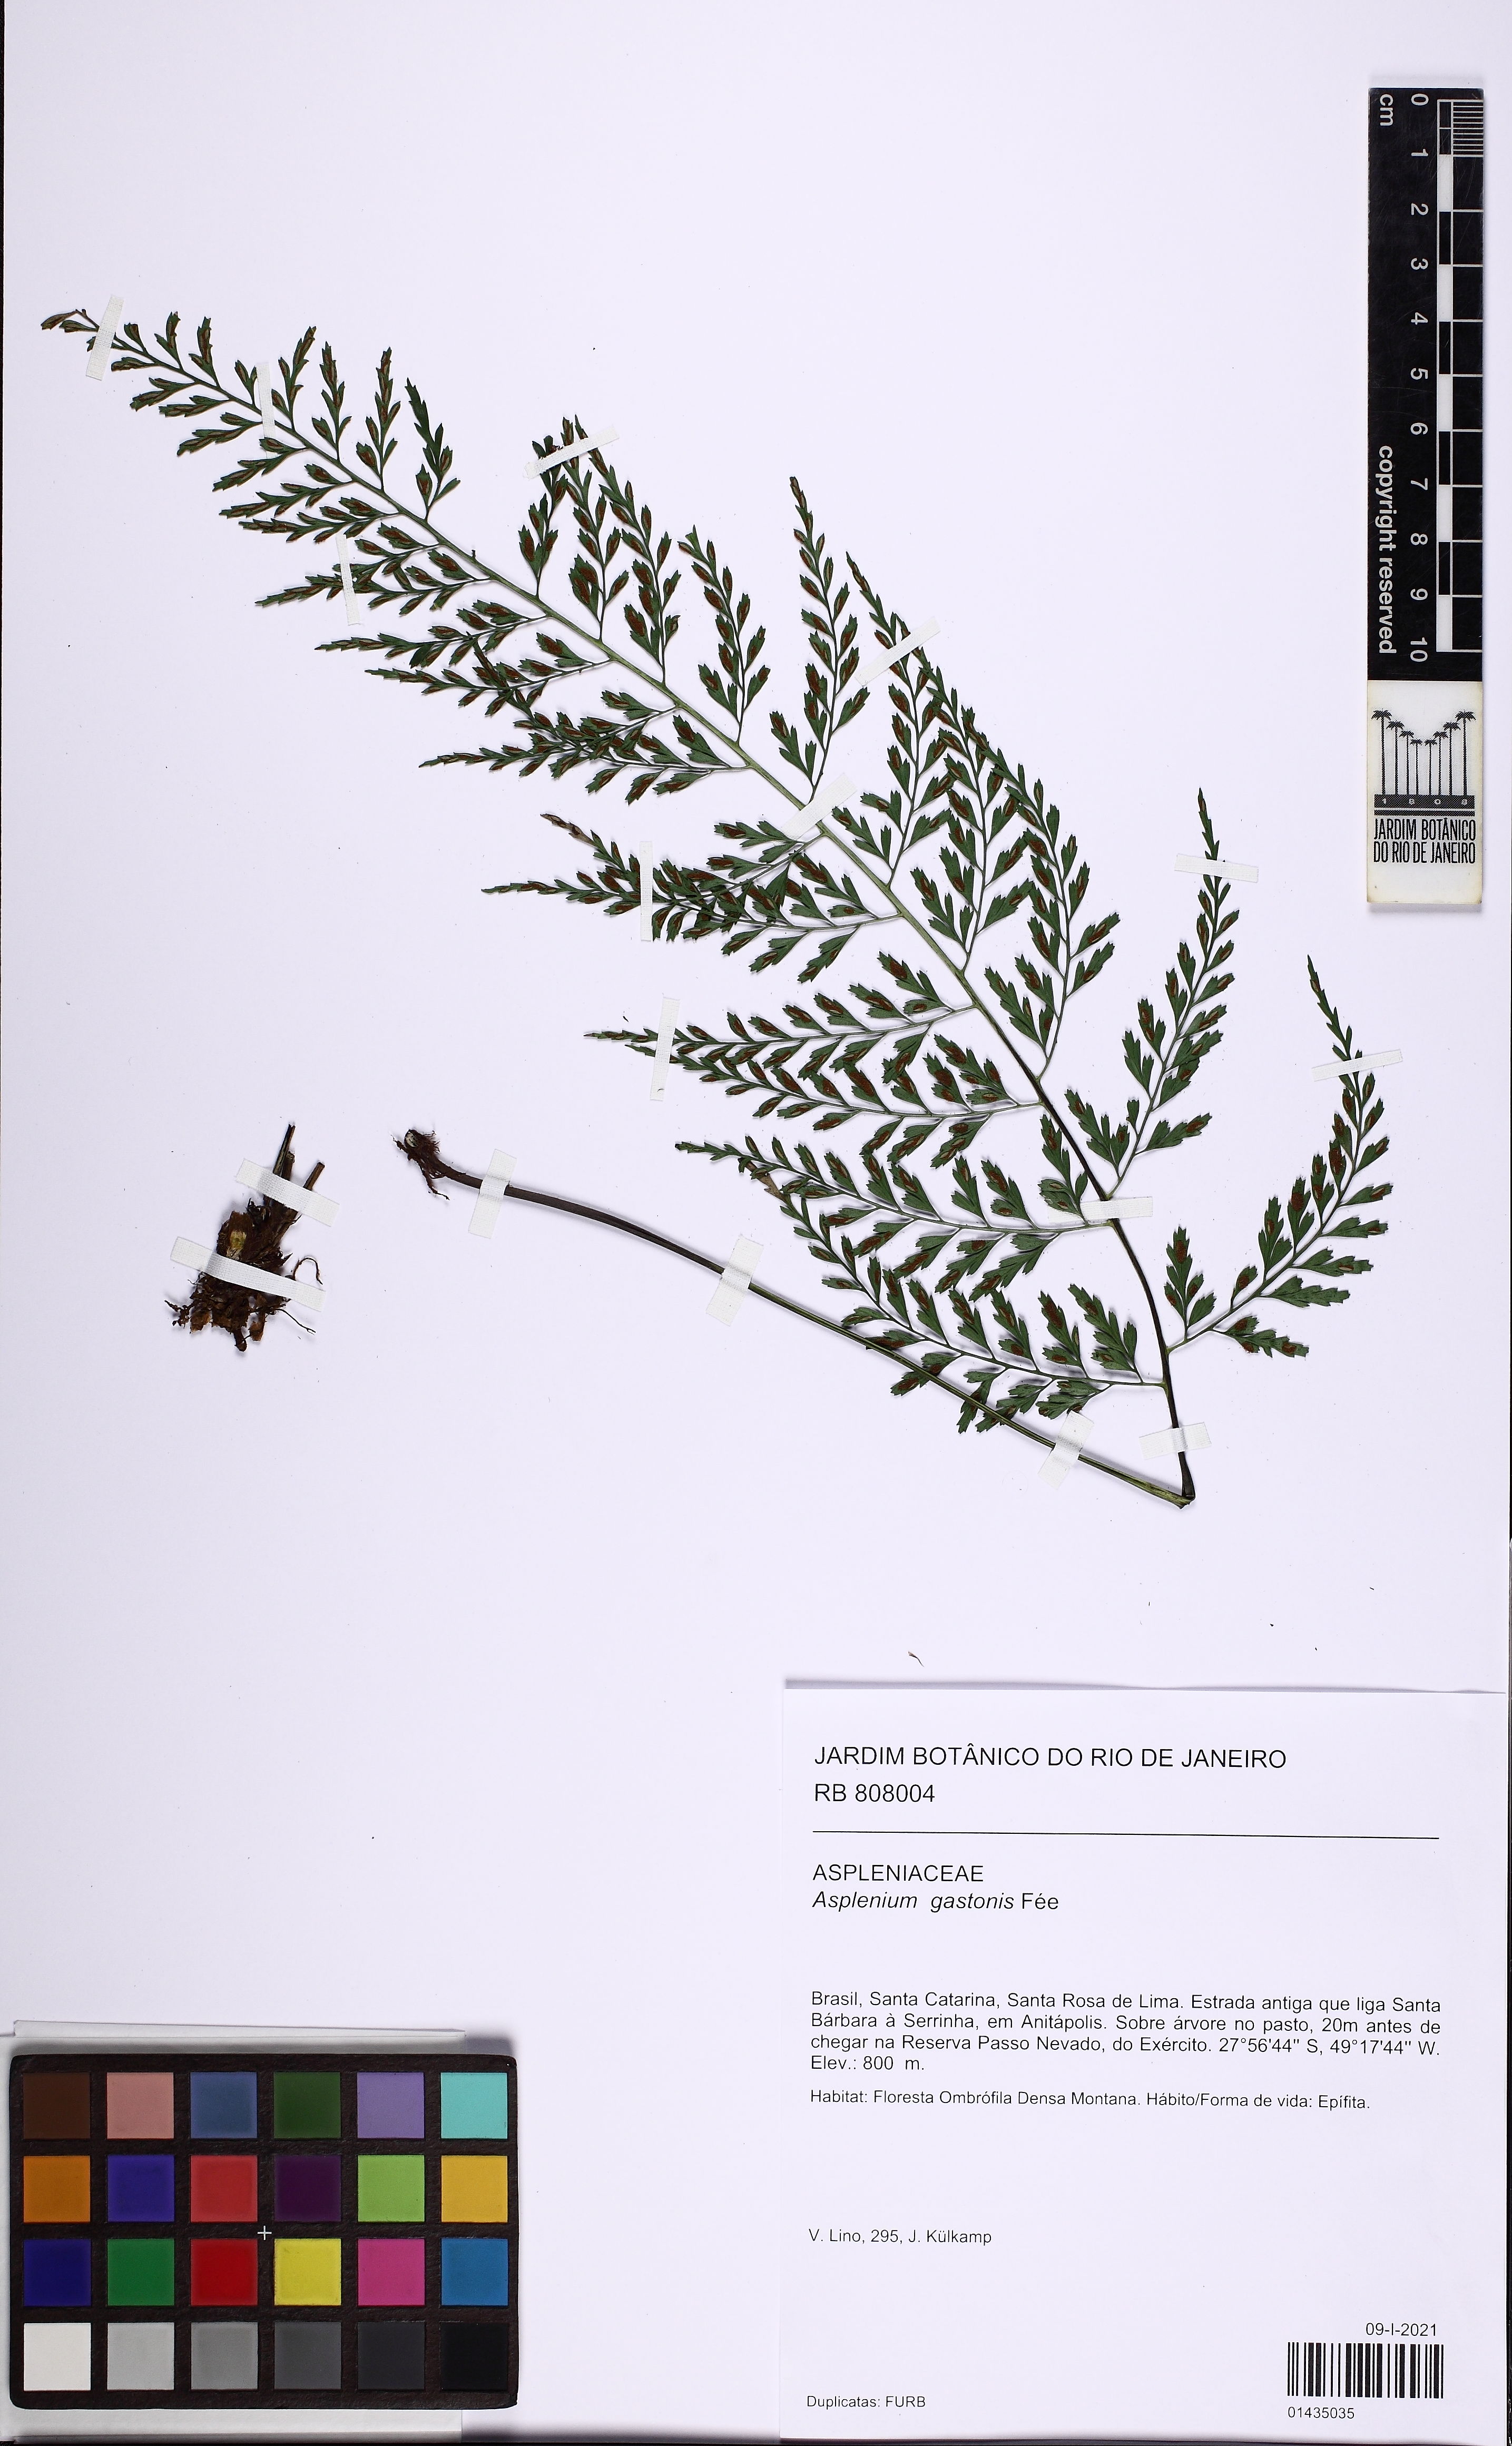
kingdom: Plantae
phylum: Tracheophyta
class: Polypodiopsida
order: Polypodiales
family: Aspleniaceae
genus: Asplenium
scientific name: Asplenium gastonis
